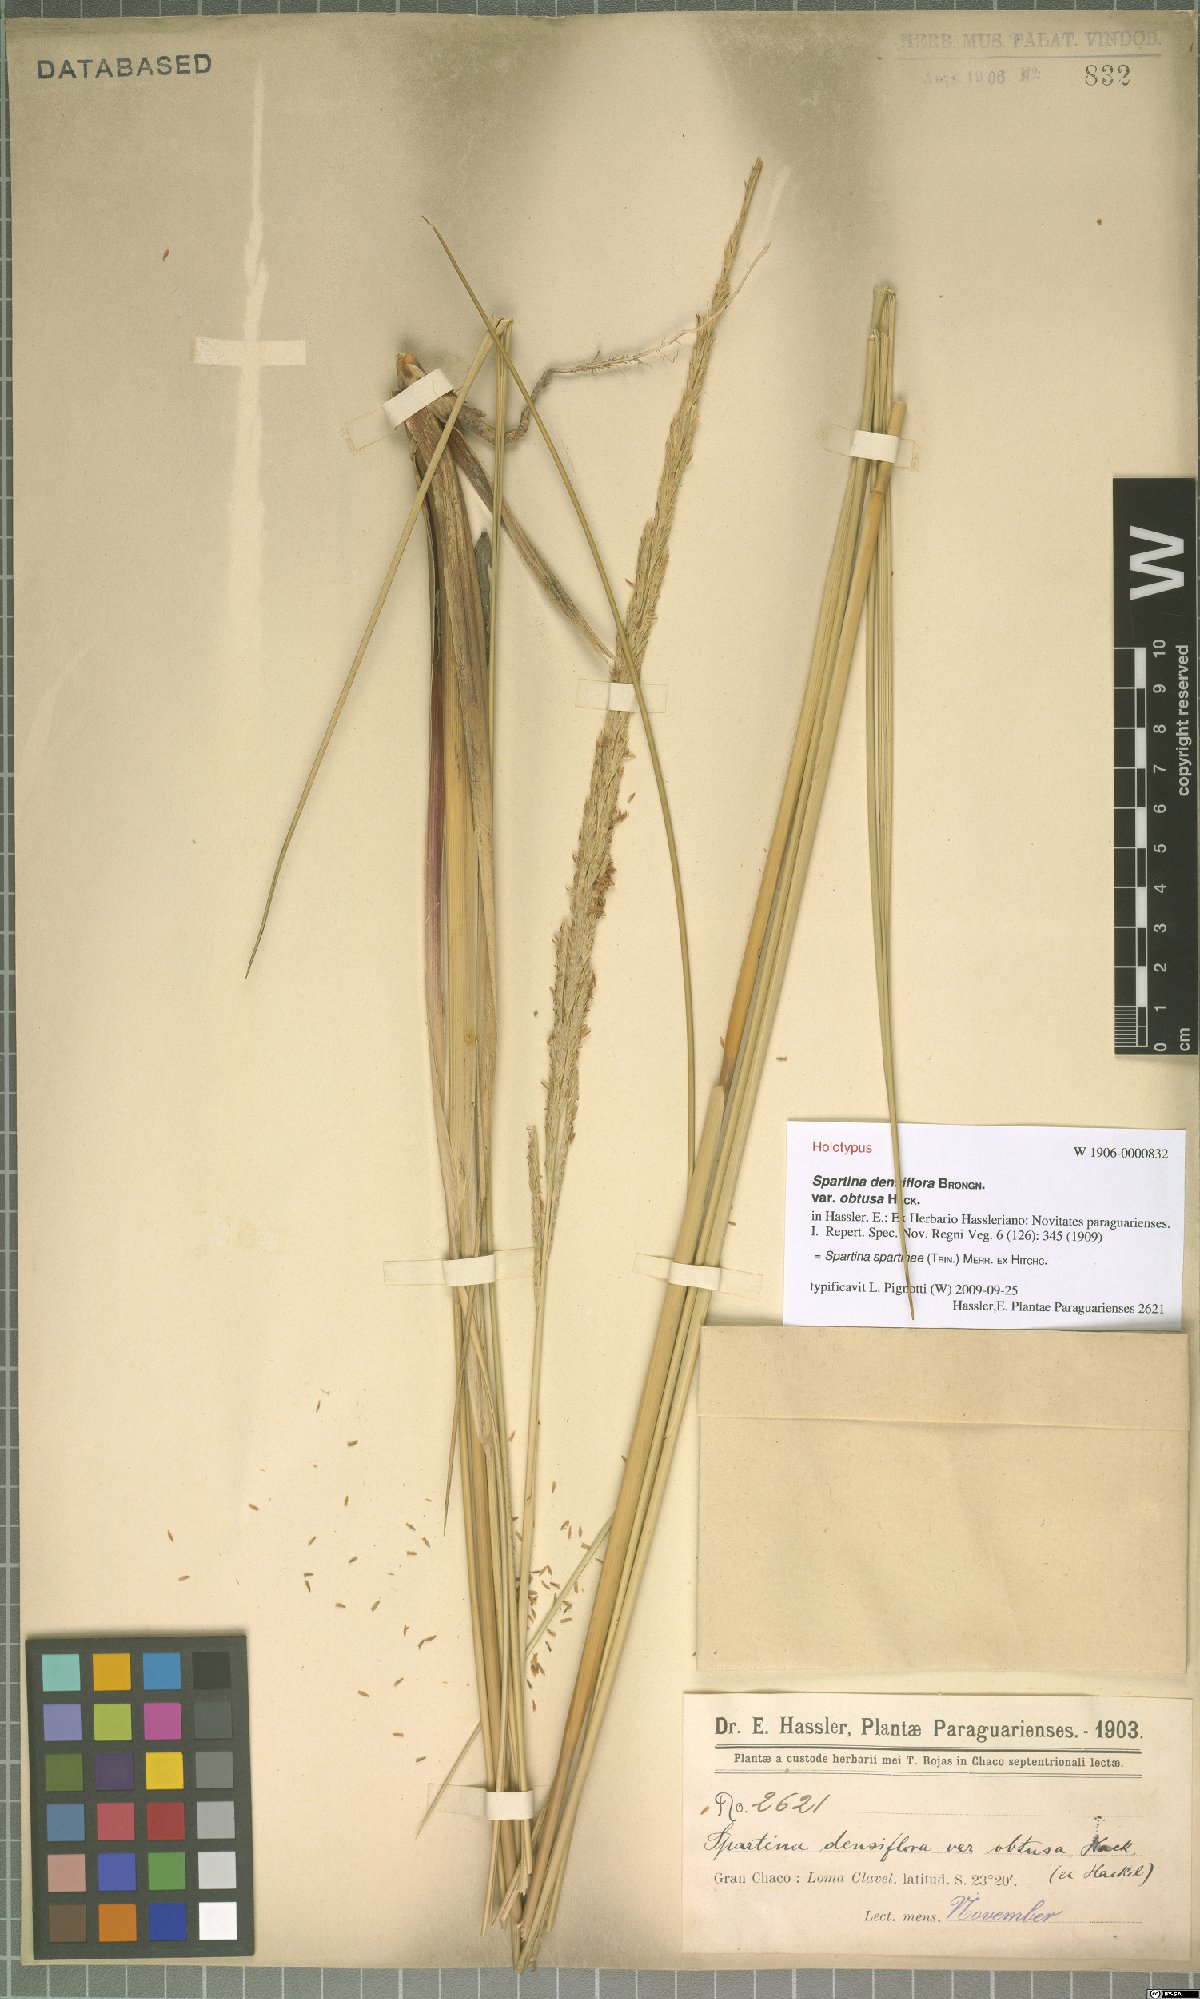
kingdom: Plantae
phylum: Tracheophyta
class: Liliopsida
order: Poales
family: Poaceae
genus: Sporobolus
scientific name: Sporobolus spartinae
